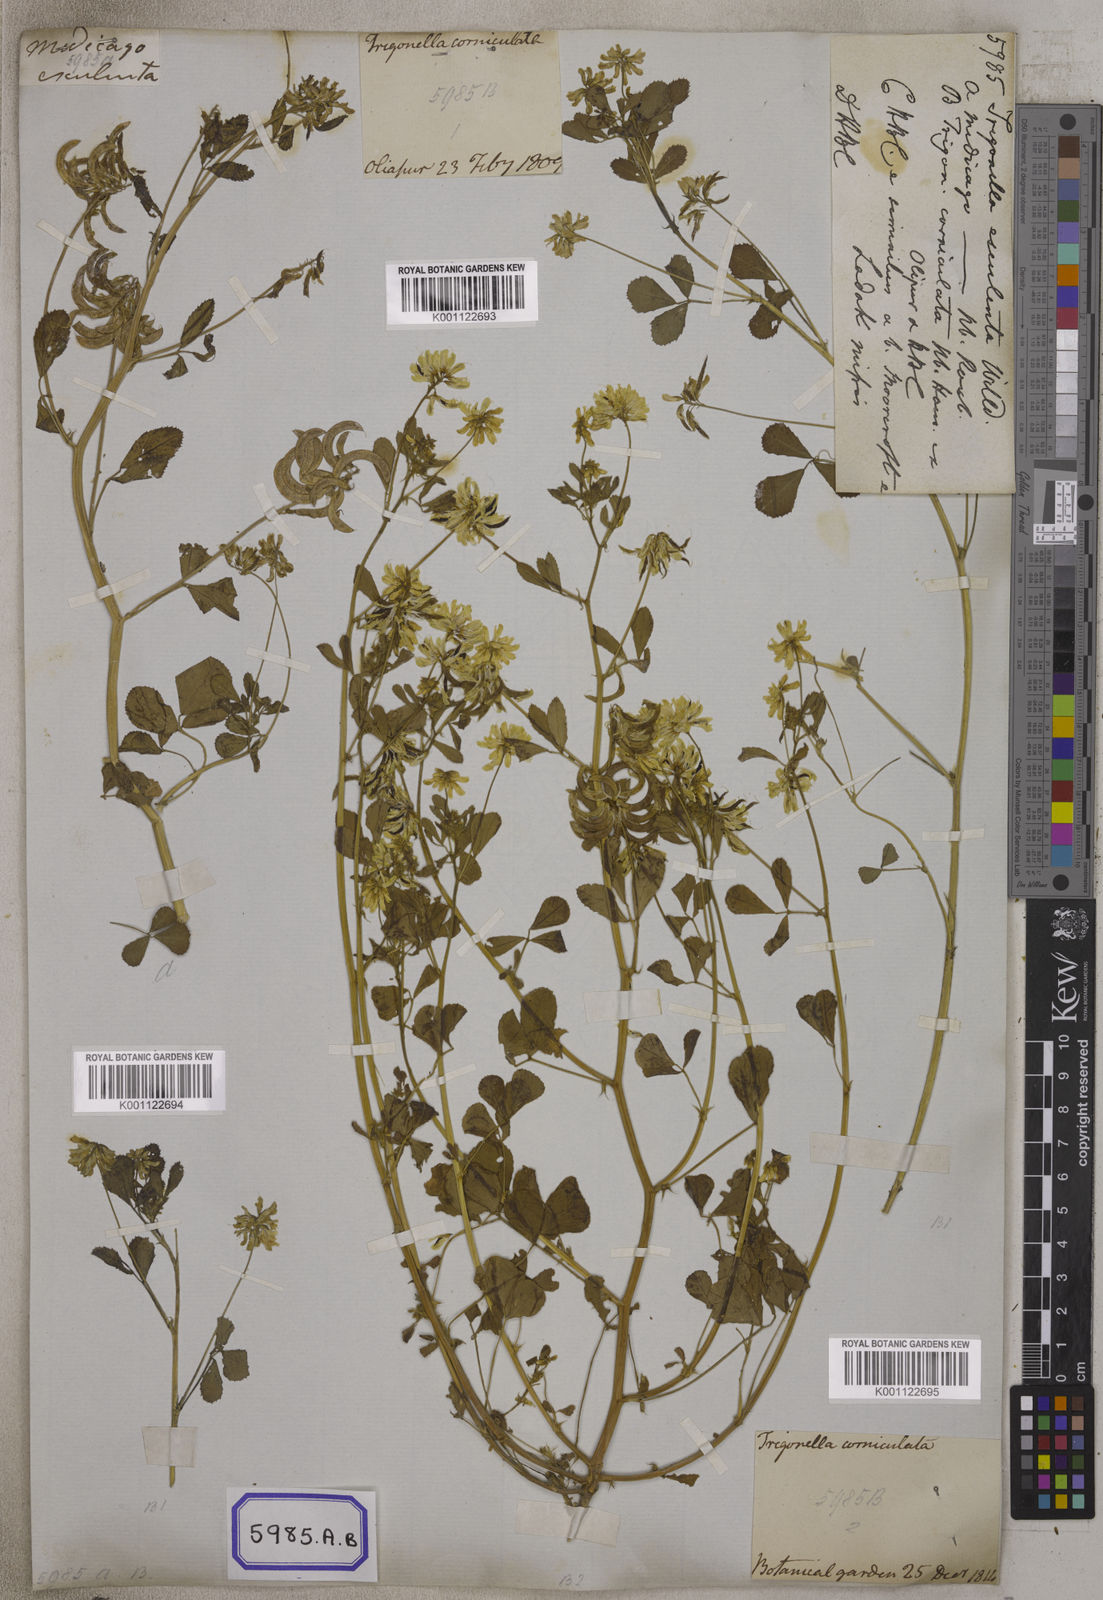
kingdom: Plantae
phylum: Tracheophyta
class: Magnoliopsida
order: Fabales
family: Fabaceae
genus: Trigonella
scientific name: Trigonella esculenta
